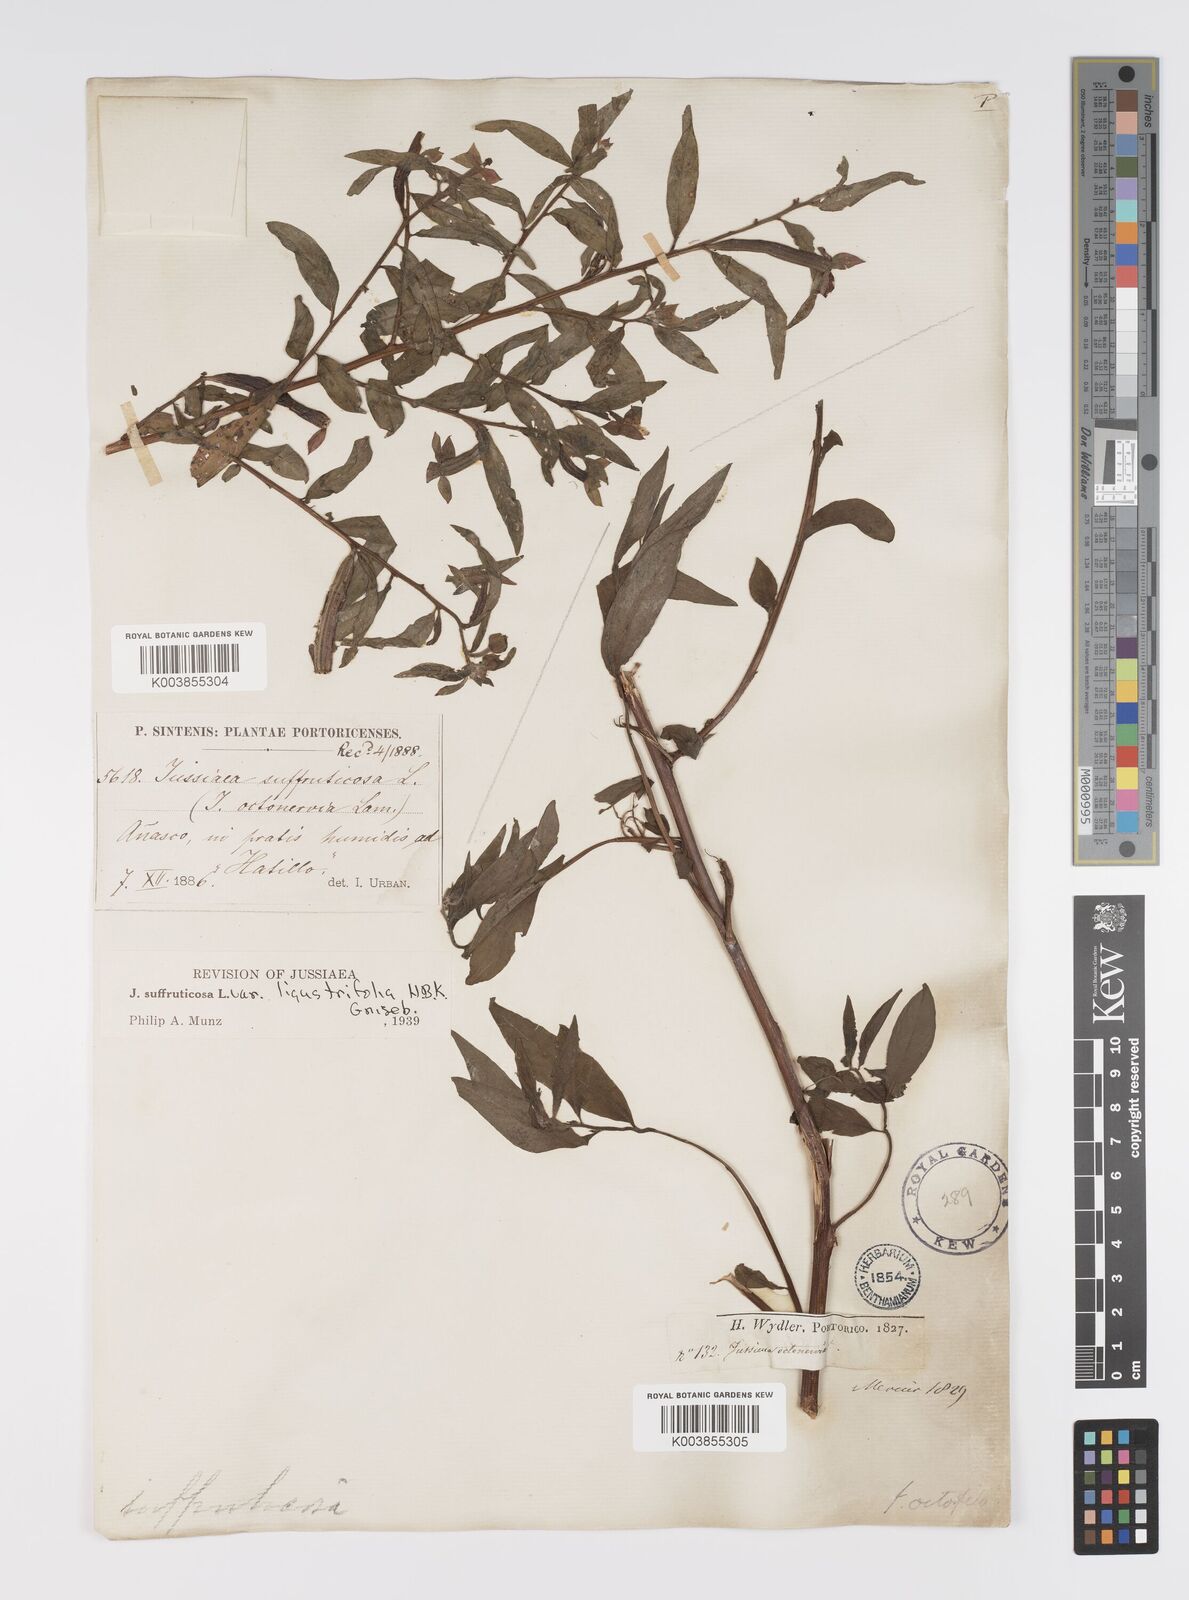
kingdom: Plantae
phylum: Tracheophyta
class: Magnoliopsida
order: Myrtales
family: Onagraceae
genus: Ludwigia
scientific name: Ludwigia
